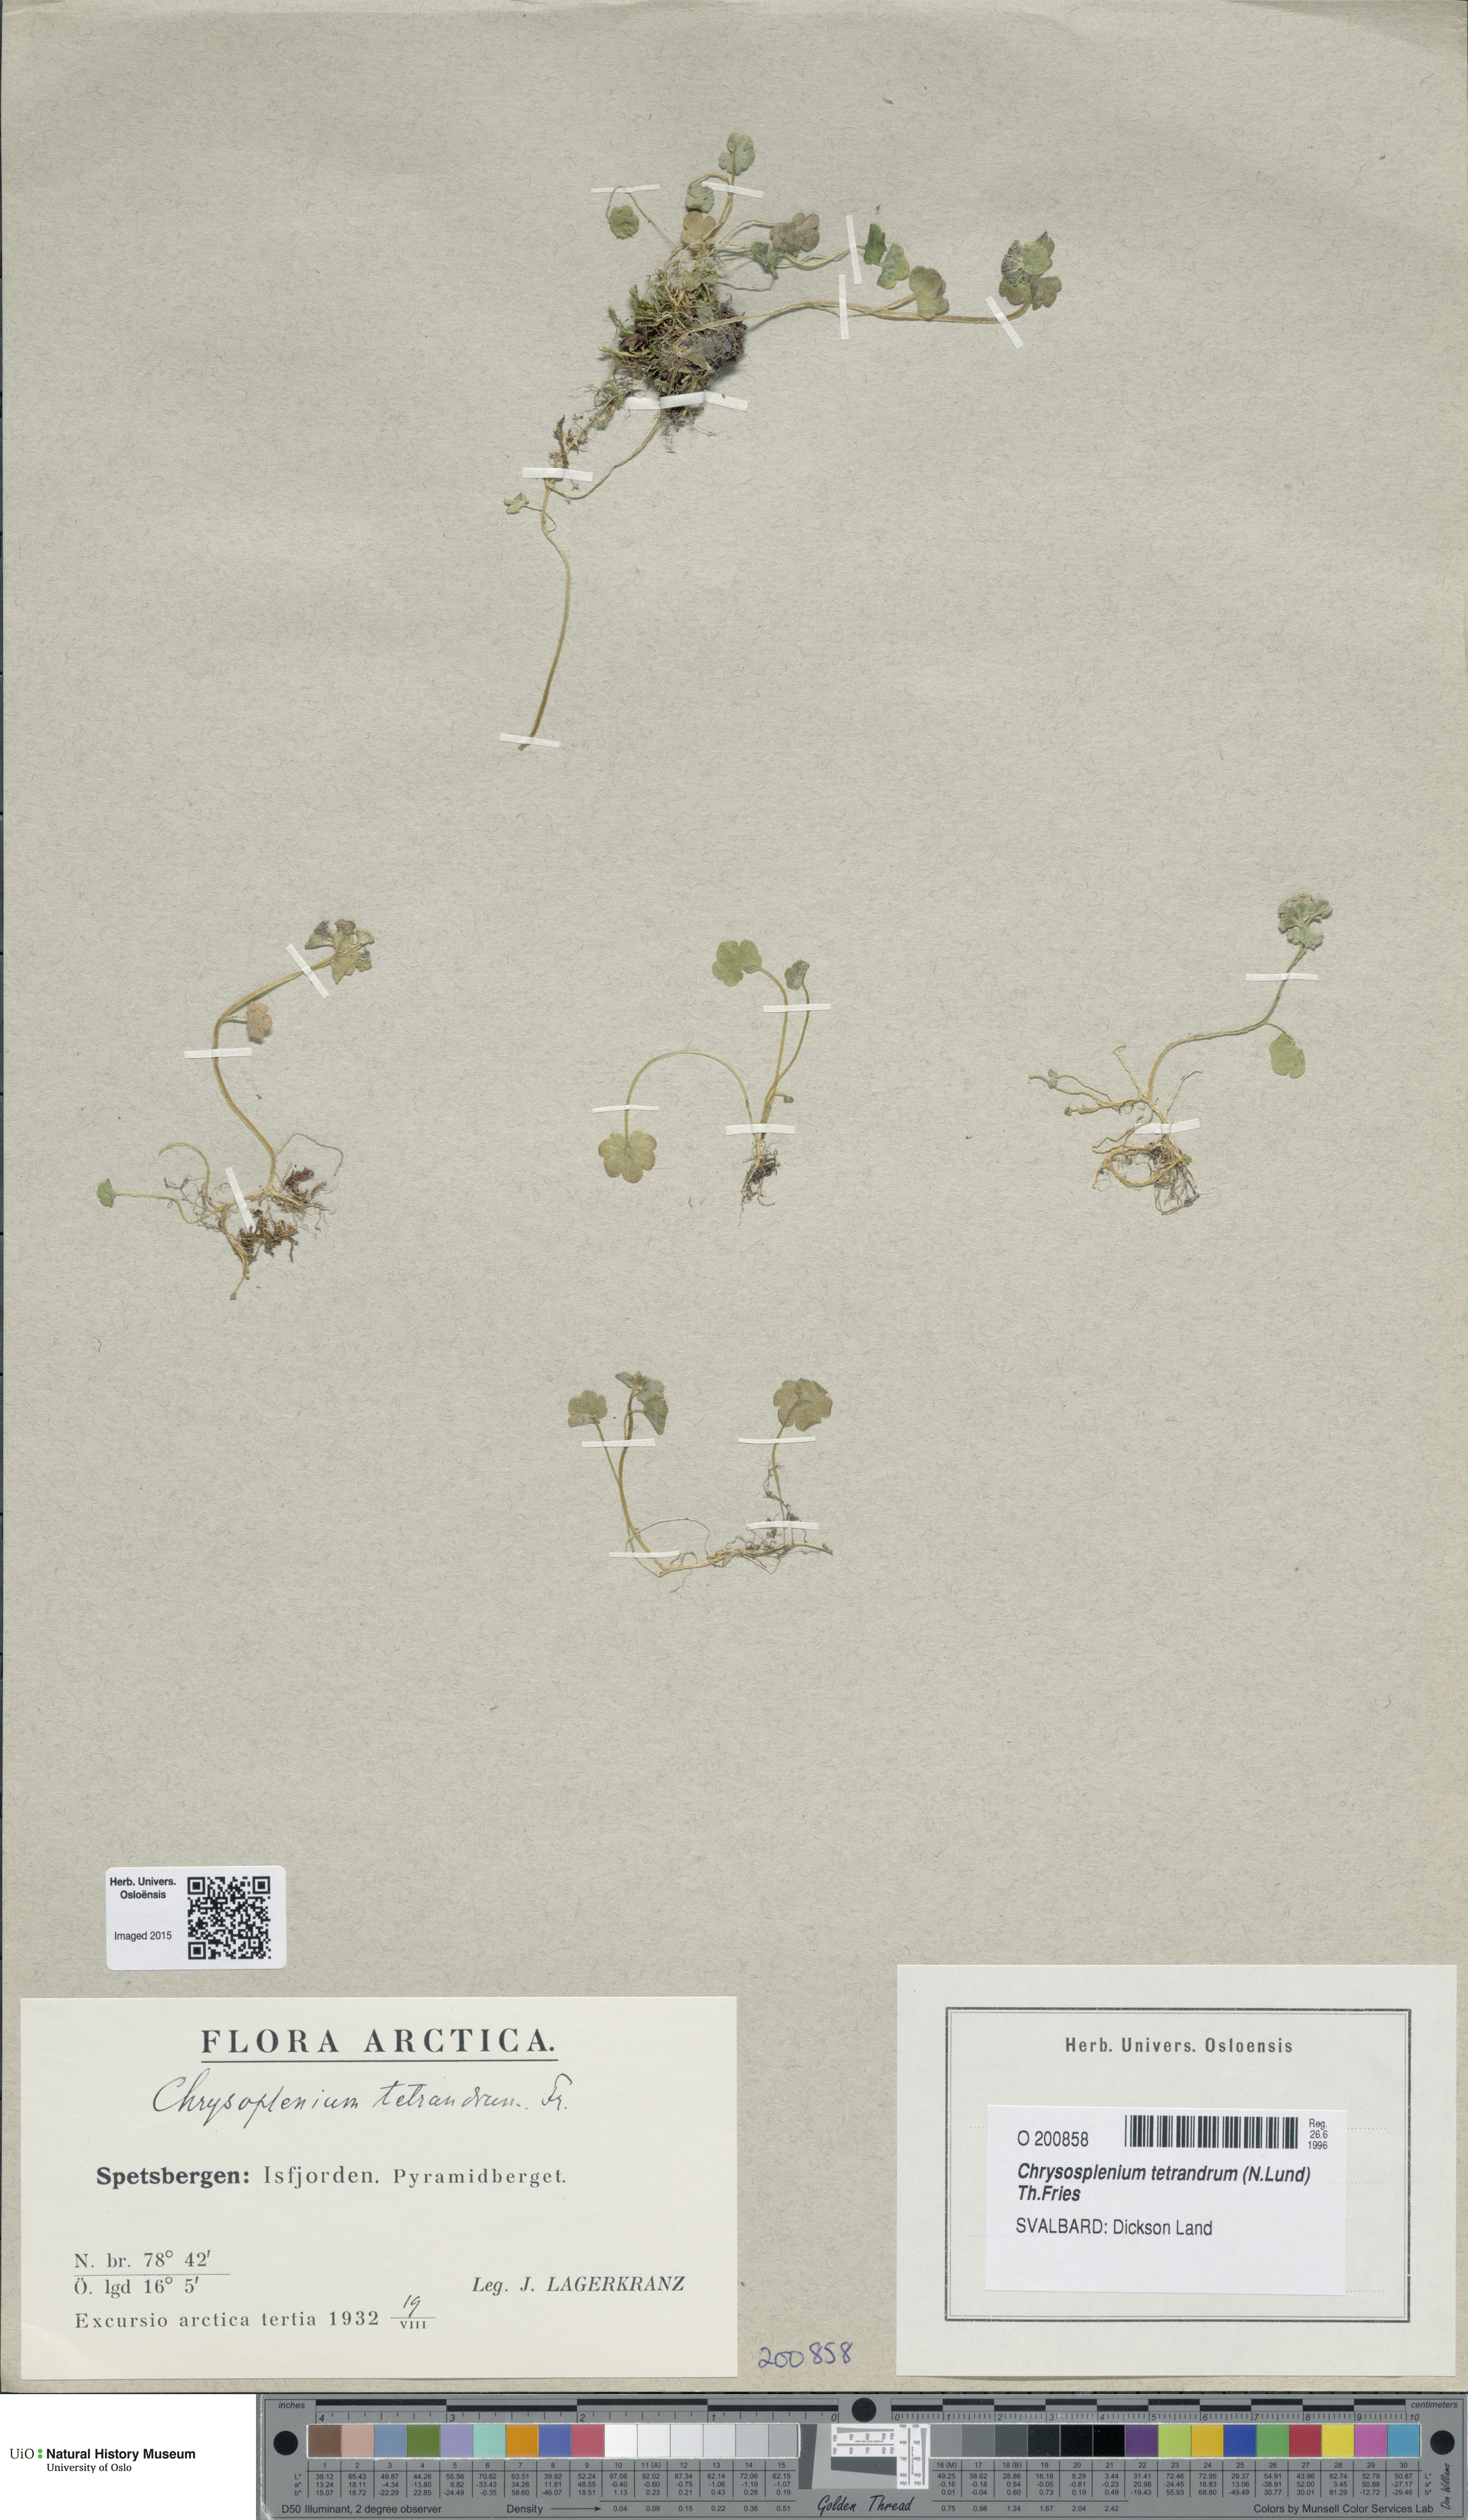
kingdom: Plantae
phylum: Tracheophyta
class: Magnoliopsida
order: Saxifragales
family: Saxifragaceae
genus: Chrysosplenium
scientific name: Chrysosplenium tetrandrum
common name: Green saxifrage
